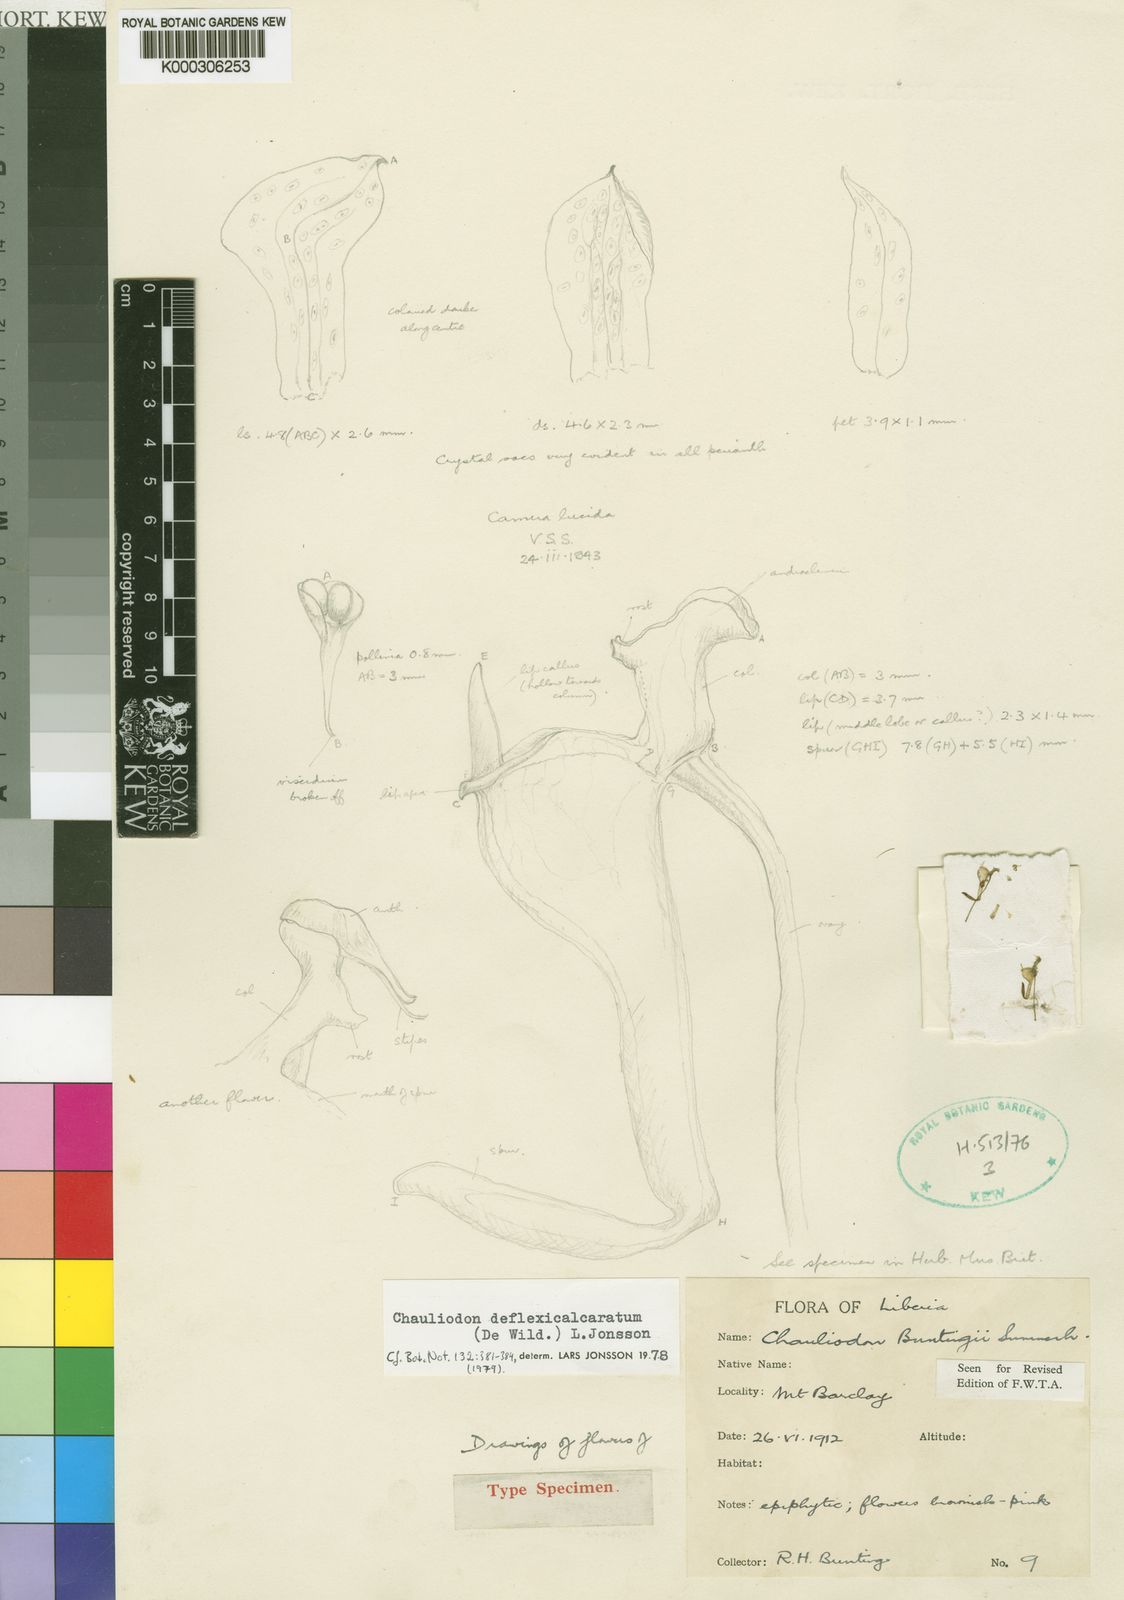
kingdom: Plantae
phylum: Tracheophyta
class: Liliopsida
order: Asparagales
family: Orchidaceae
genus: Chauliodon
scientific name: Chauliodon deflexicalcaratum
